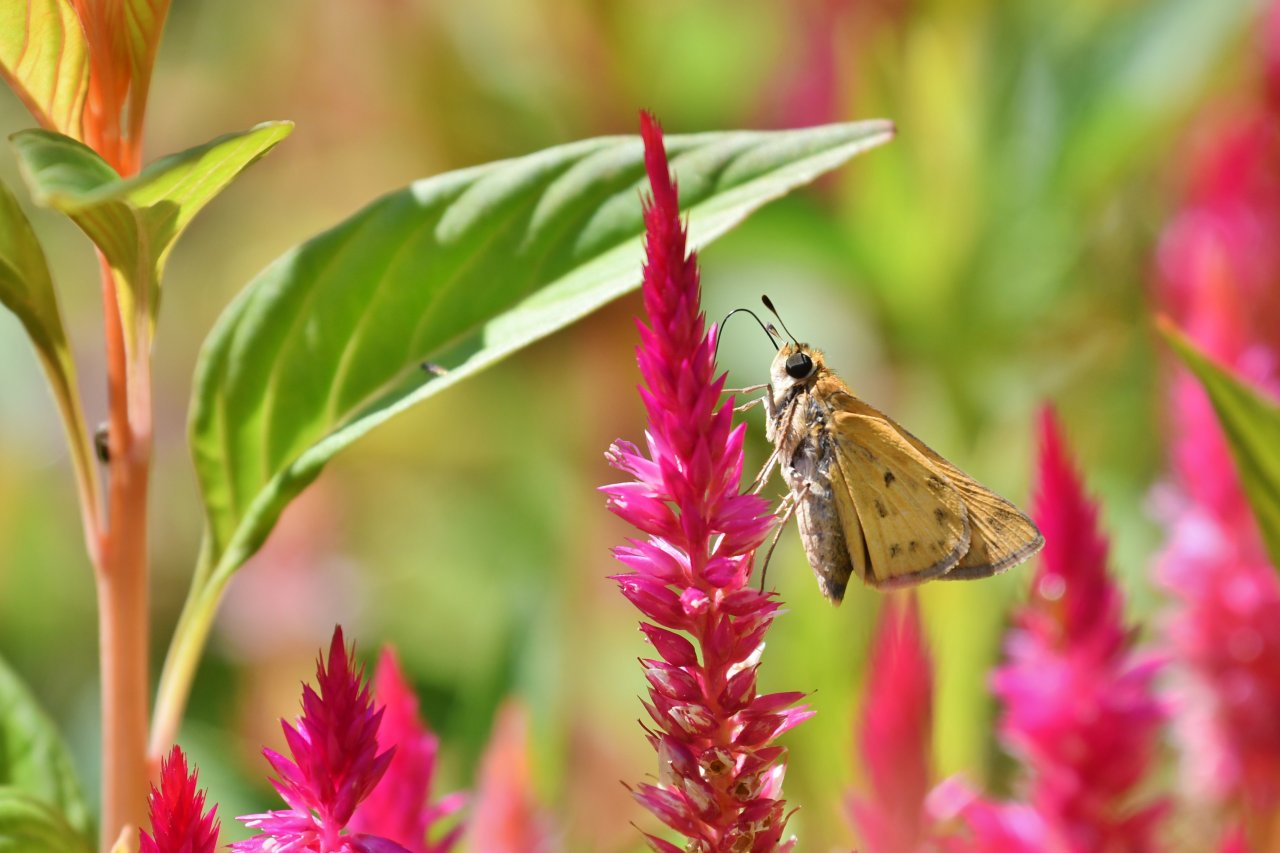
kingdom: Animalia
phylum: Arthropoda
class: Insecta
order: Lepidoptera
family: Hesperiidae
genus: Hylephila
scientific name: Hylephila phyleus
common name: Fiery Skipper
